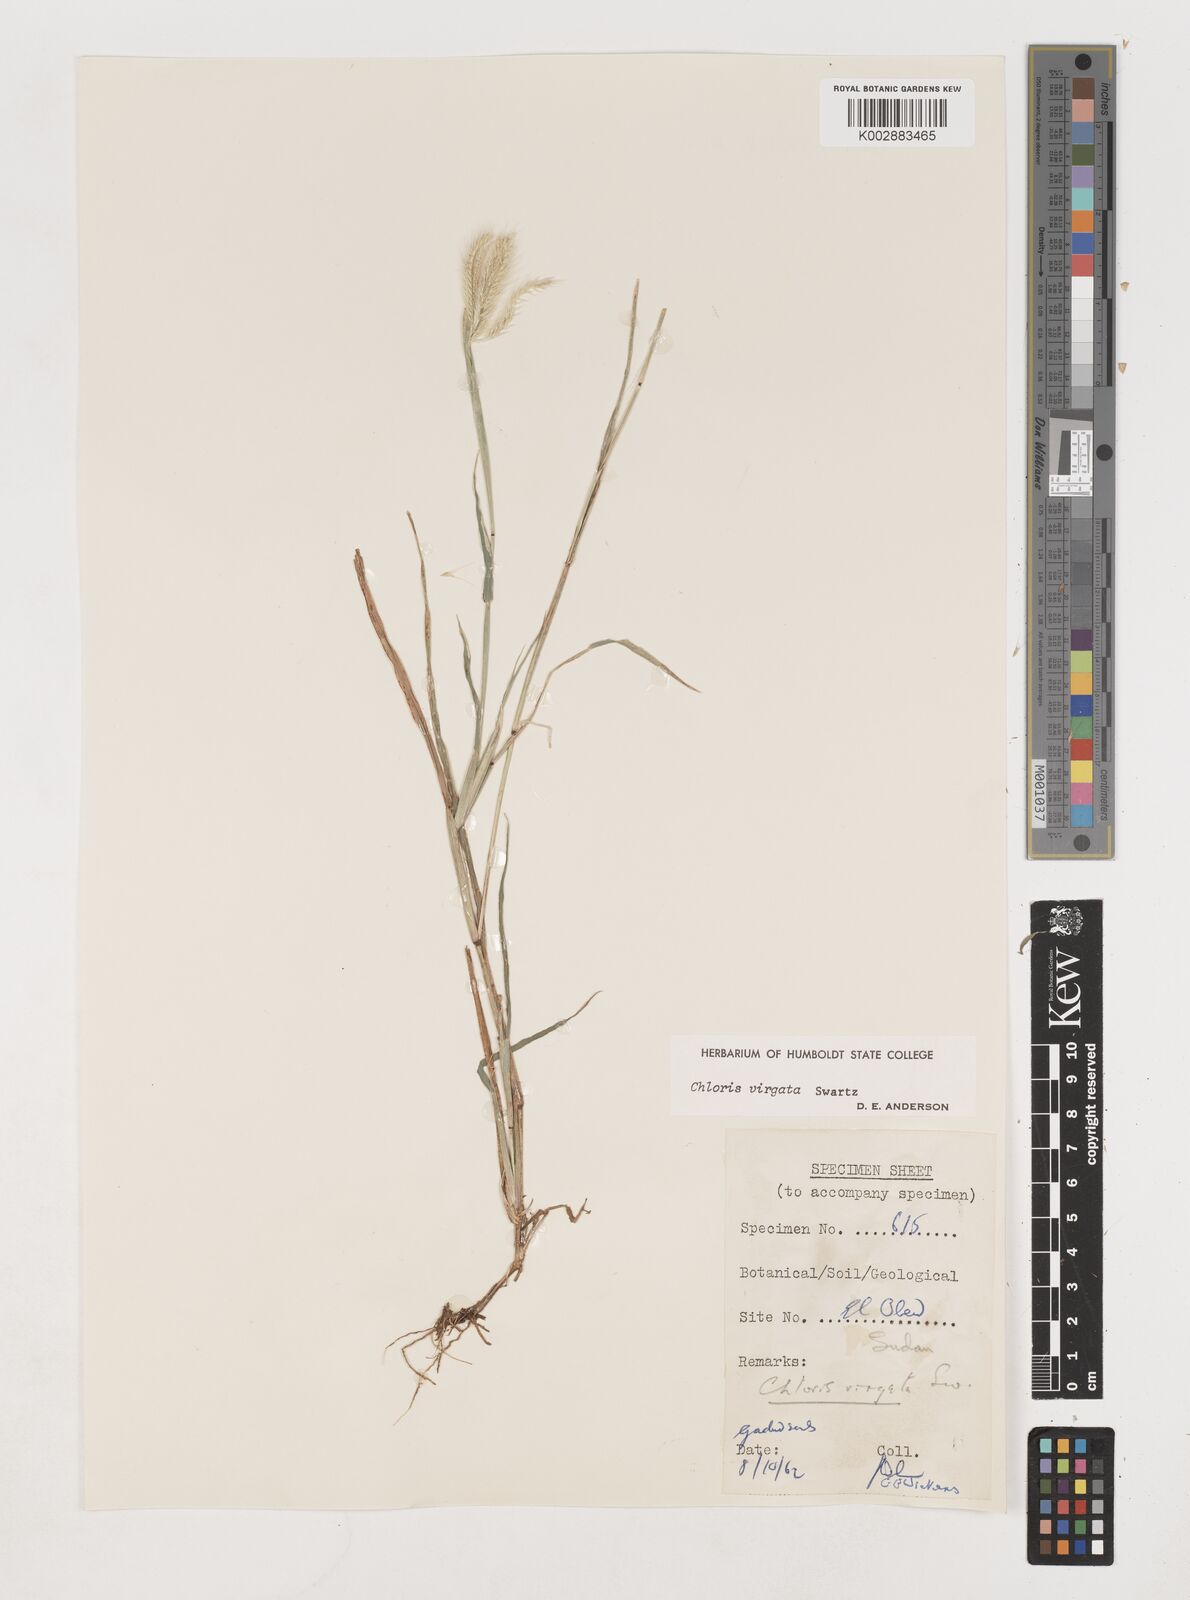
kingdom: Plantae
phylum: Tracheophyta
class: Liliopsida
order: Poales
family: Poaceae
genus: Chloris
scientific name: Chloris virgata
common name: Feathery rhodes-grass
